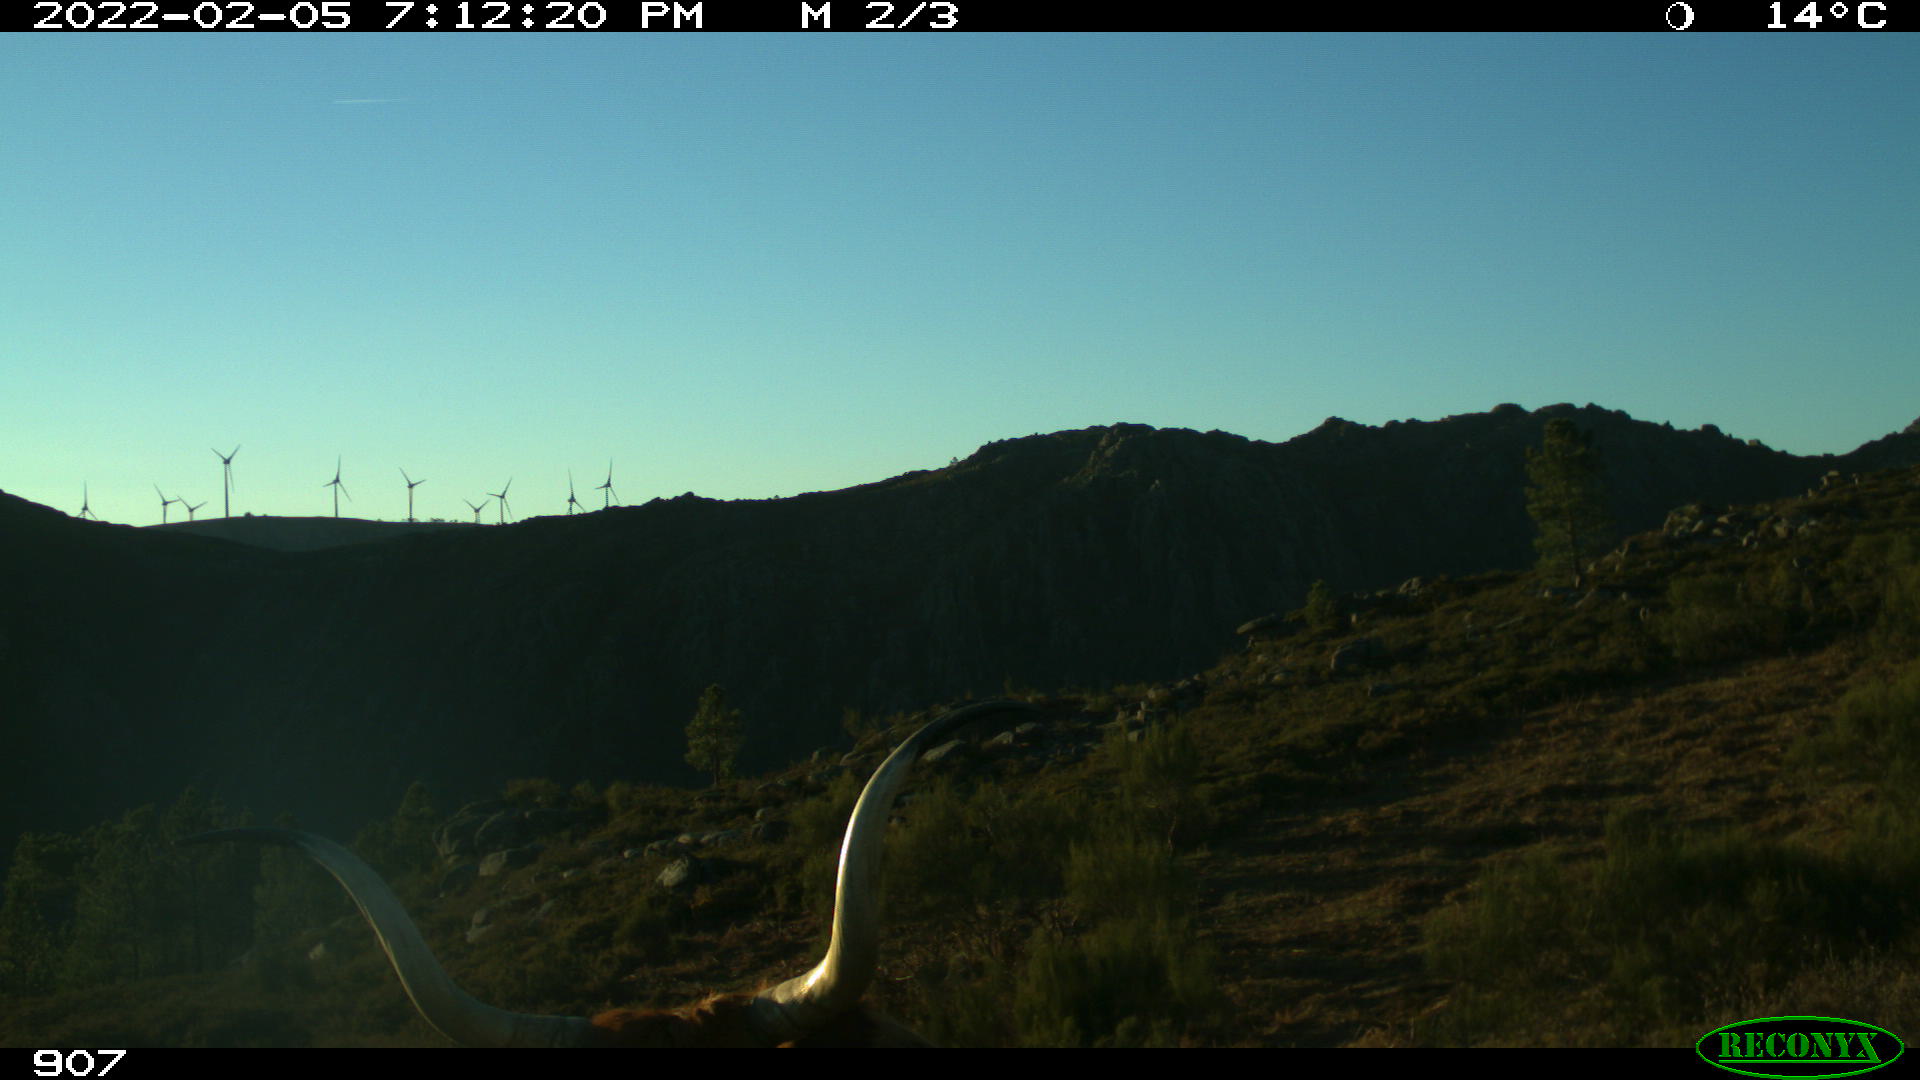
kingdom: Animalia
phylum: Chordata
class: Mammalia
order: Artiodactyla
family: Bovidae
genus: Bos
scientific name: Bos taurus
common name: Domesticated cattle
